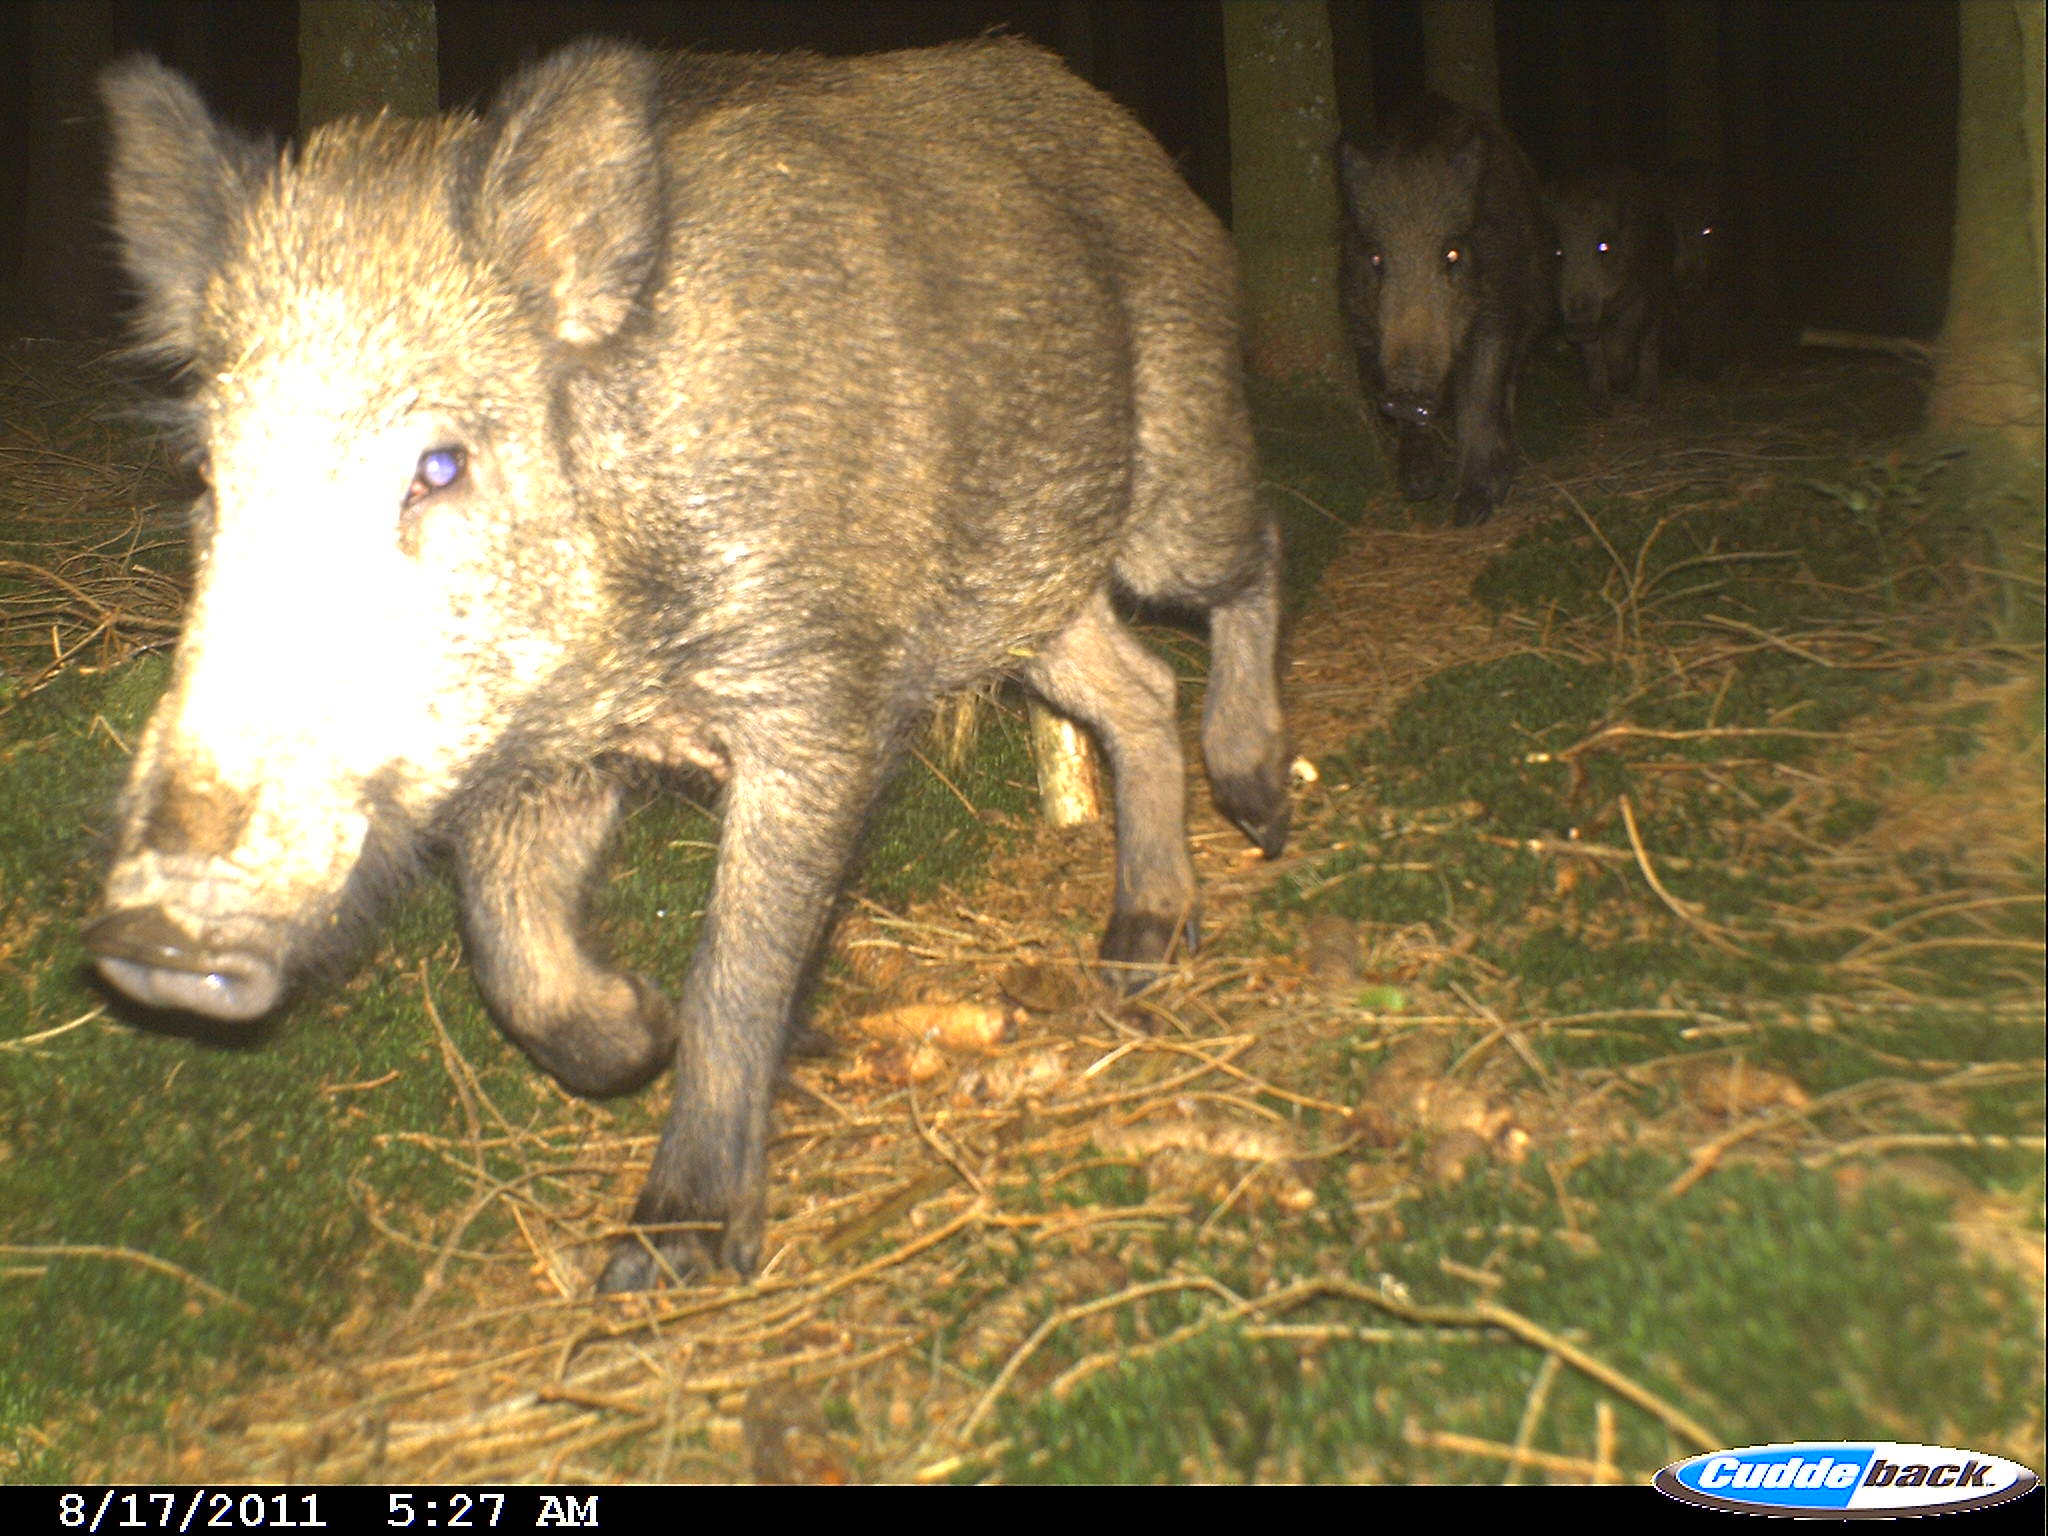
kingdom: Animalia
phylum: Chordata
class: Mammalia
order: Artiodactyla
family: Suidae
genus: Sus
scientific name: Sus scrofa
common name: Wild boar
